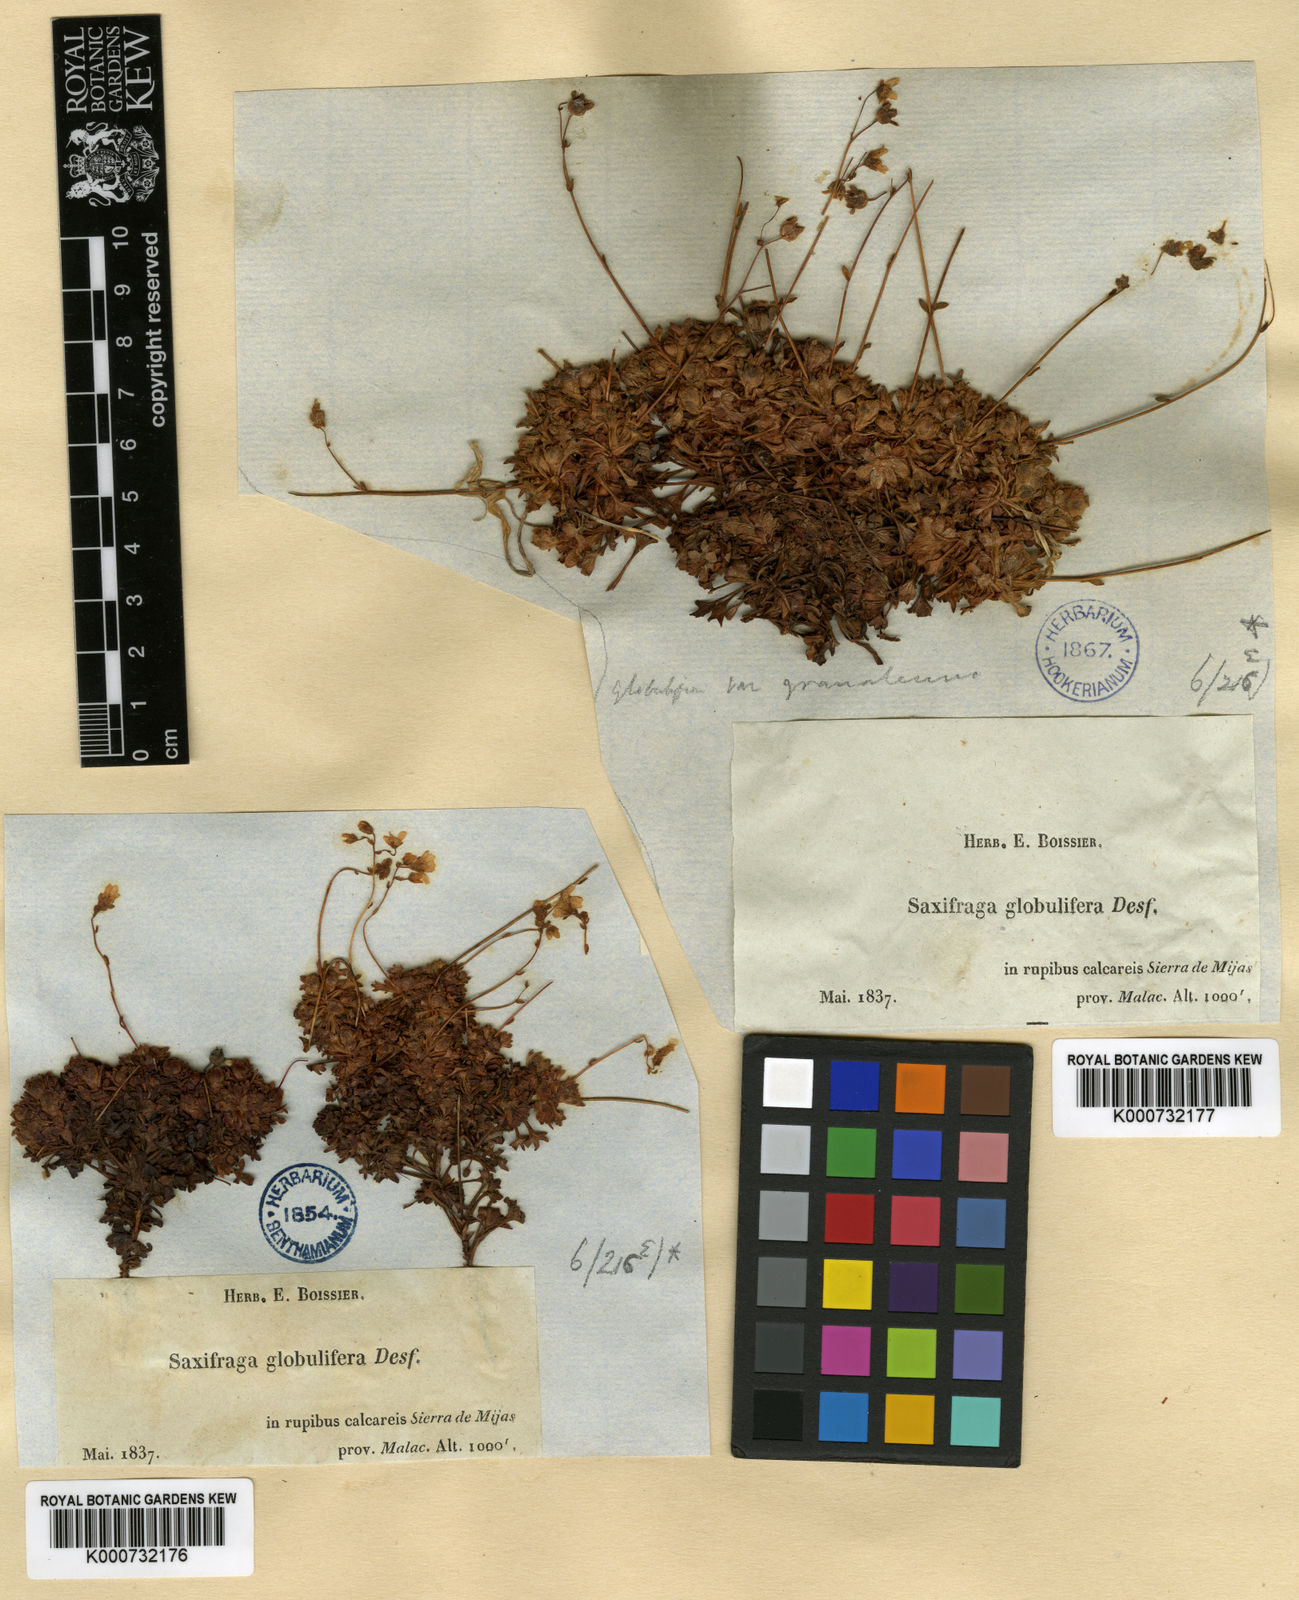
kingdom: Plantae
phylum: Tracheophyta
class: Magnoliopsida
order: Saxifragales
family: Saxifragaceae
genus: Saxifraga
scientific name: Saxifraga globulifera
